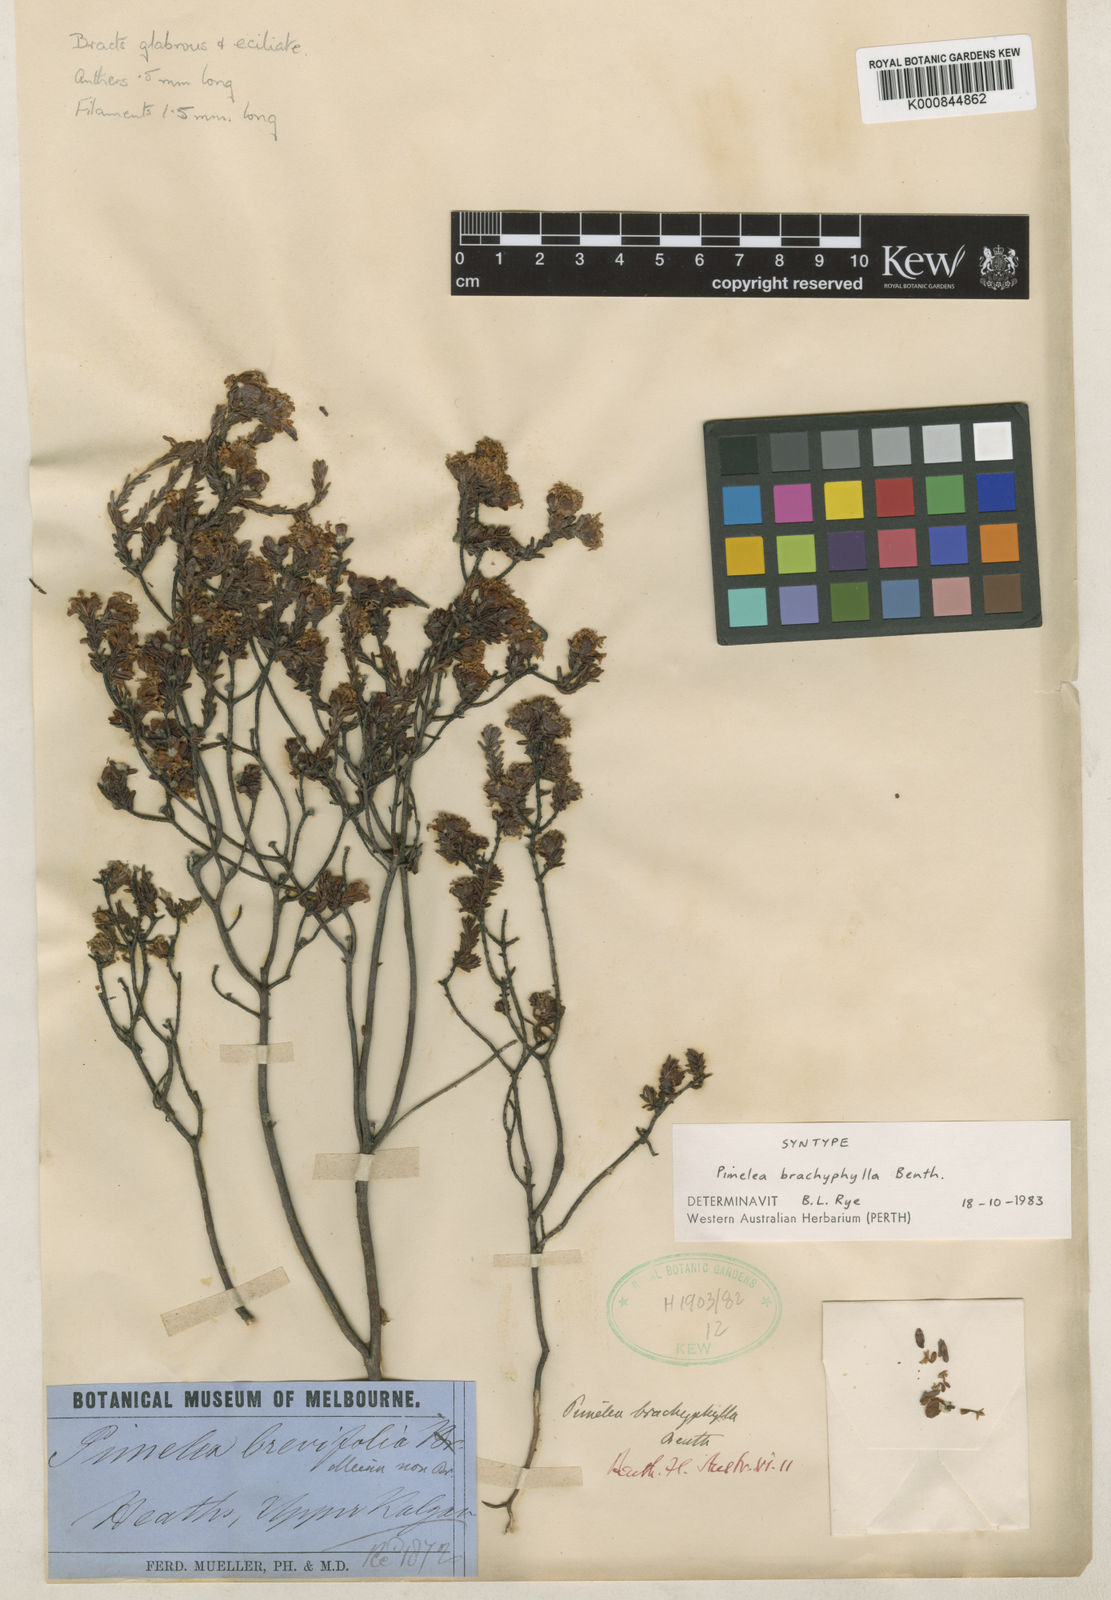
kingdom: Plantae
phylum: Tracheophyta
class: Magnoliopsida
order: Malvales
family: Thymelaeaceae
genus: Pimelea
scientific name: Pimelea brachyphylla
